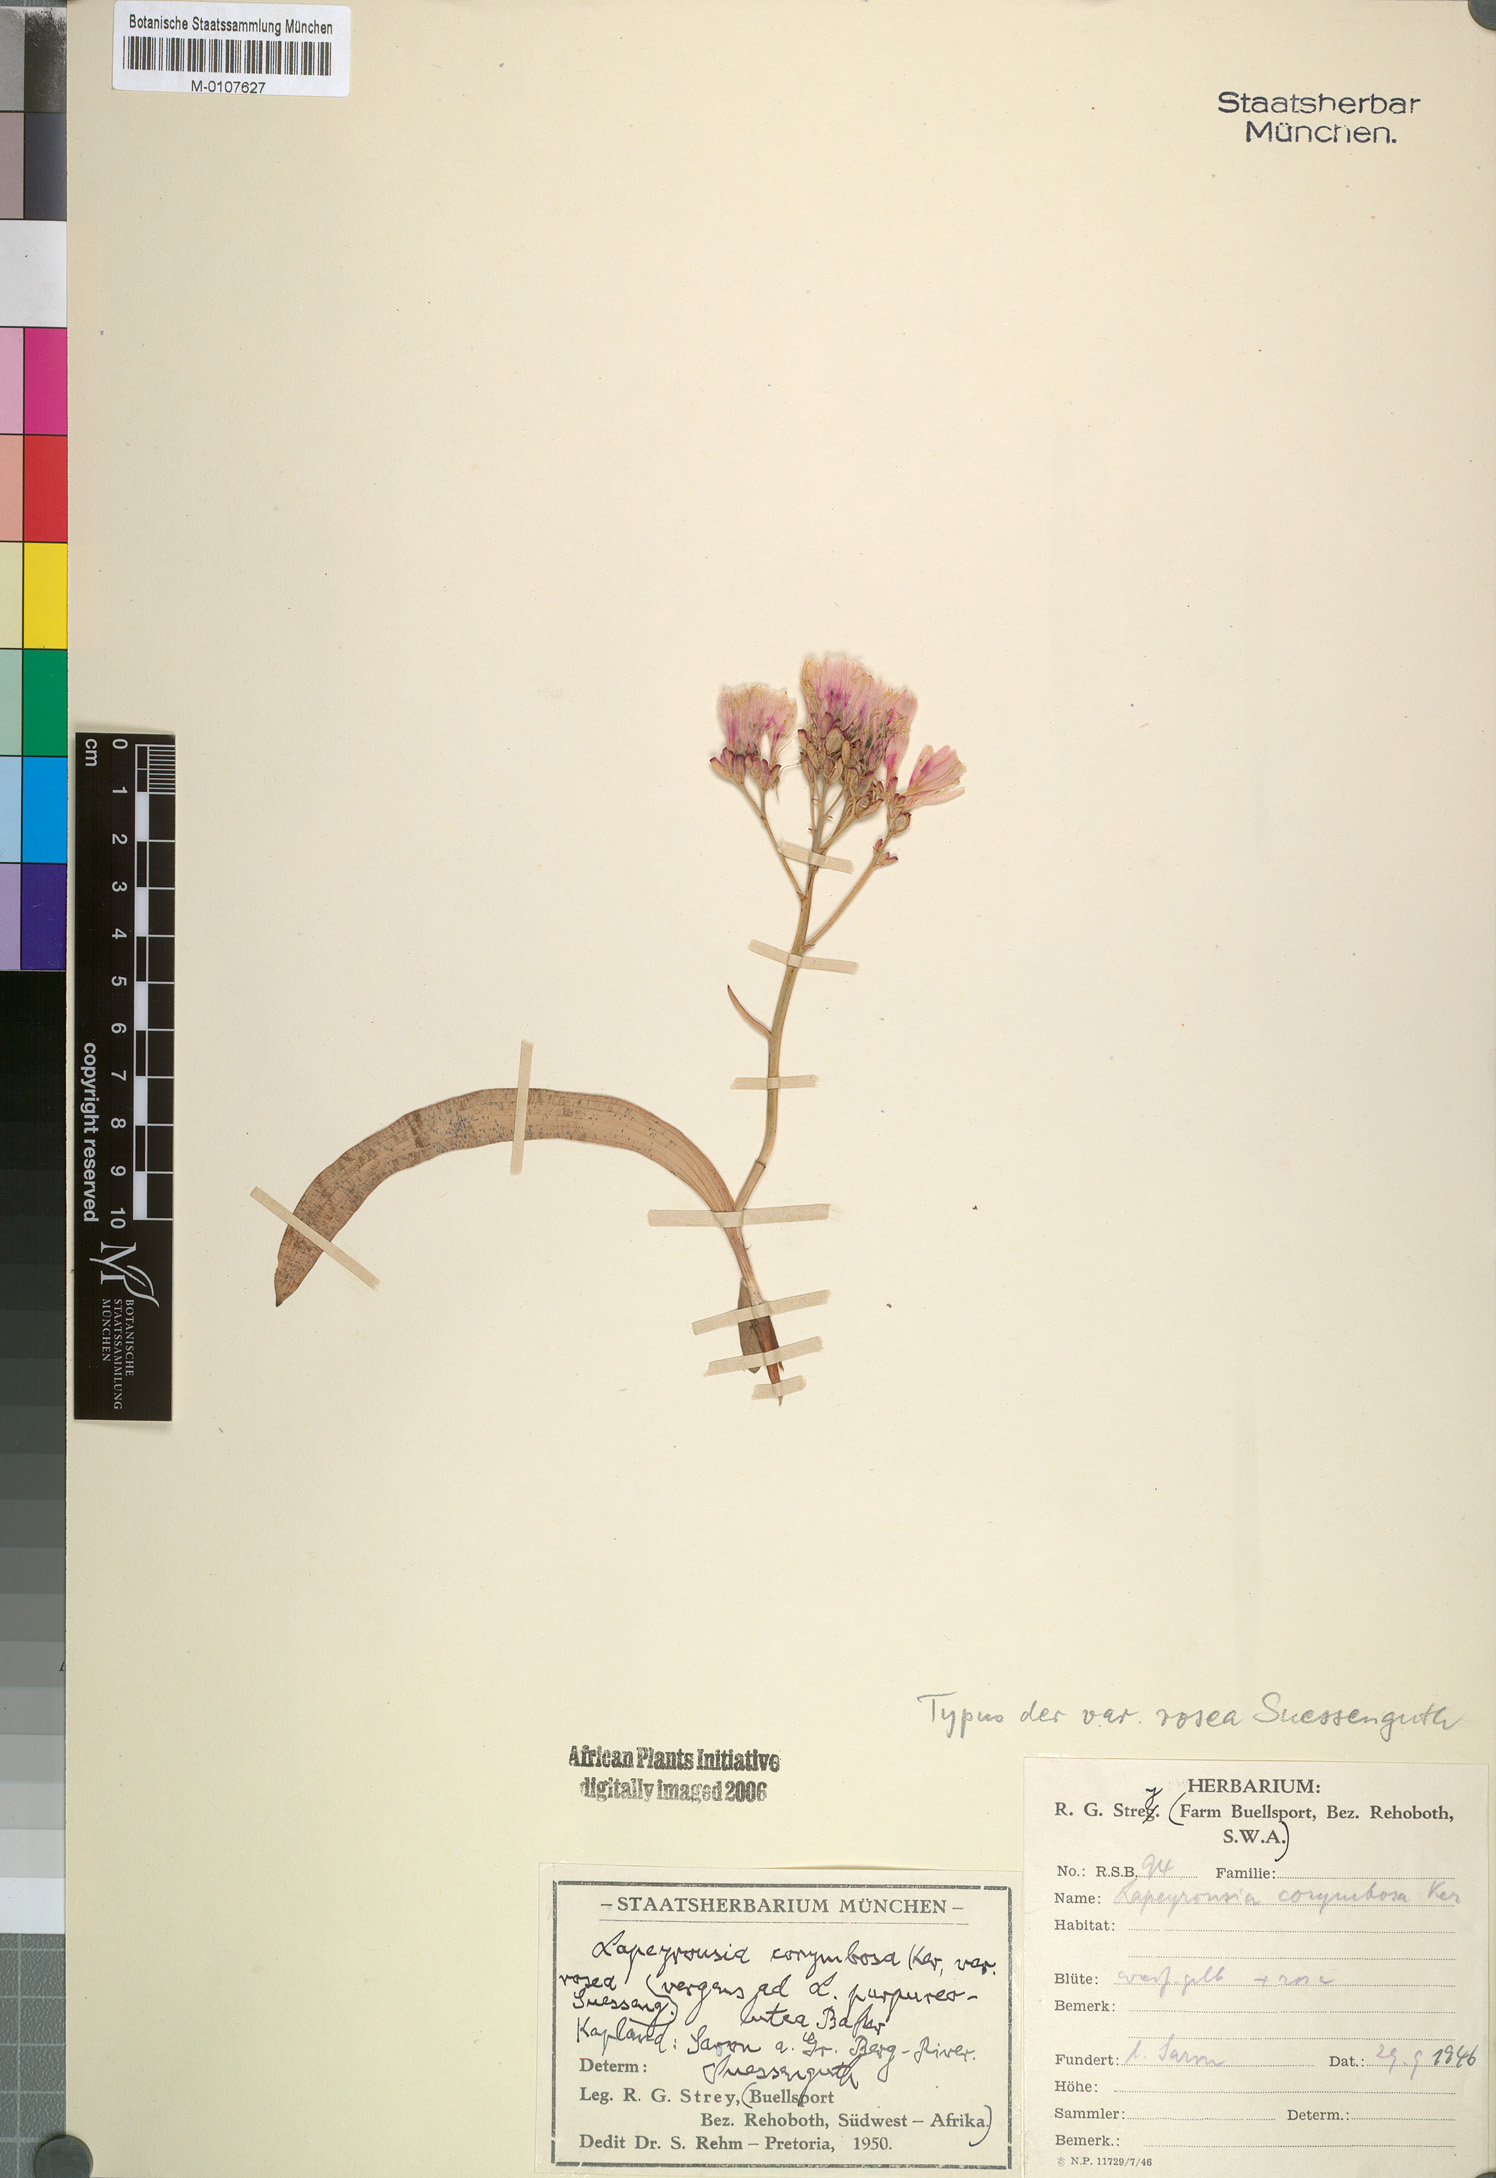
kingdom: Plantae
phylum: Tracheophyta
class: Liliopsida
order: Asparagales
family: Iridaceae
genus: Codonorhiza
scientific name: Codonorhiza fastigiata
